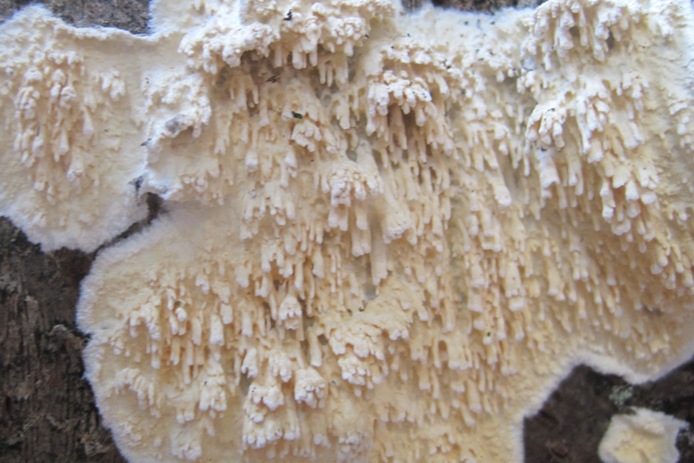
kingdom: Fungi
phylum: Basidiomycota
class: Agaricomycetes
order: Hymenochaetales
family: Schizoporaceae
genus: Xylodon
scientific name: Xylodon radula
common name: grovtandet kalkskind
